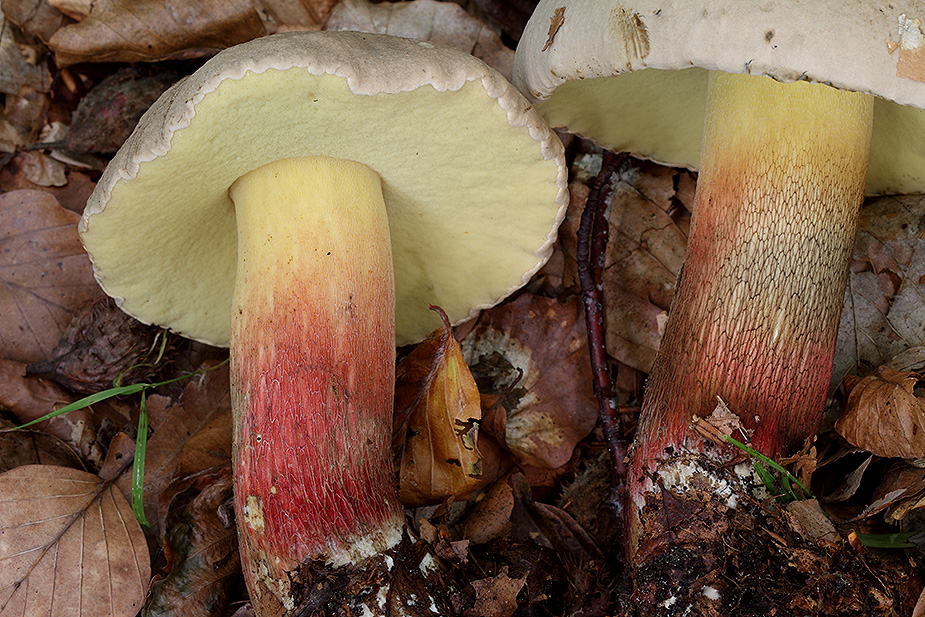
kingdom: Fungi
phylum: Basidiomycota
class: Agaricomycetes
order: Boletales
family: Boletaceae
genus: Caloboletus
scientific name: Caloboletus calopus
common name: skønfodet rørhat
